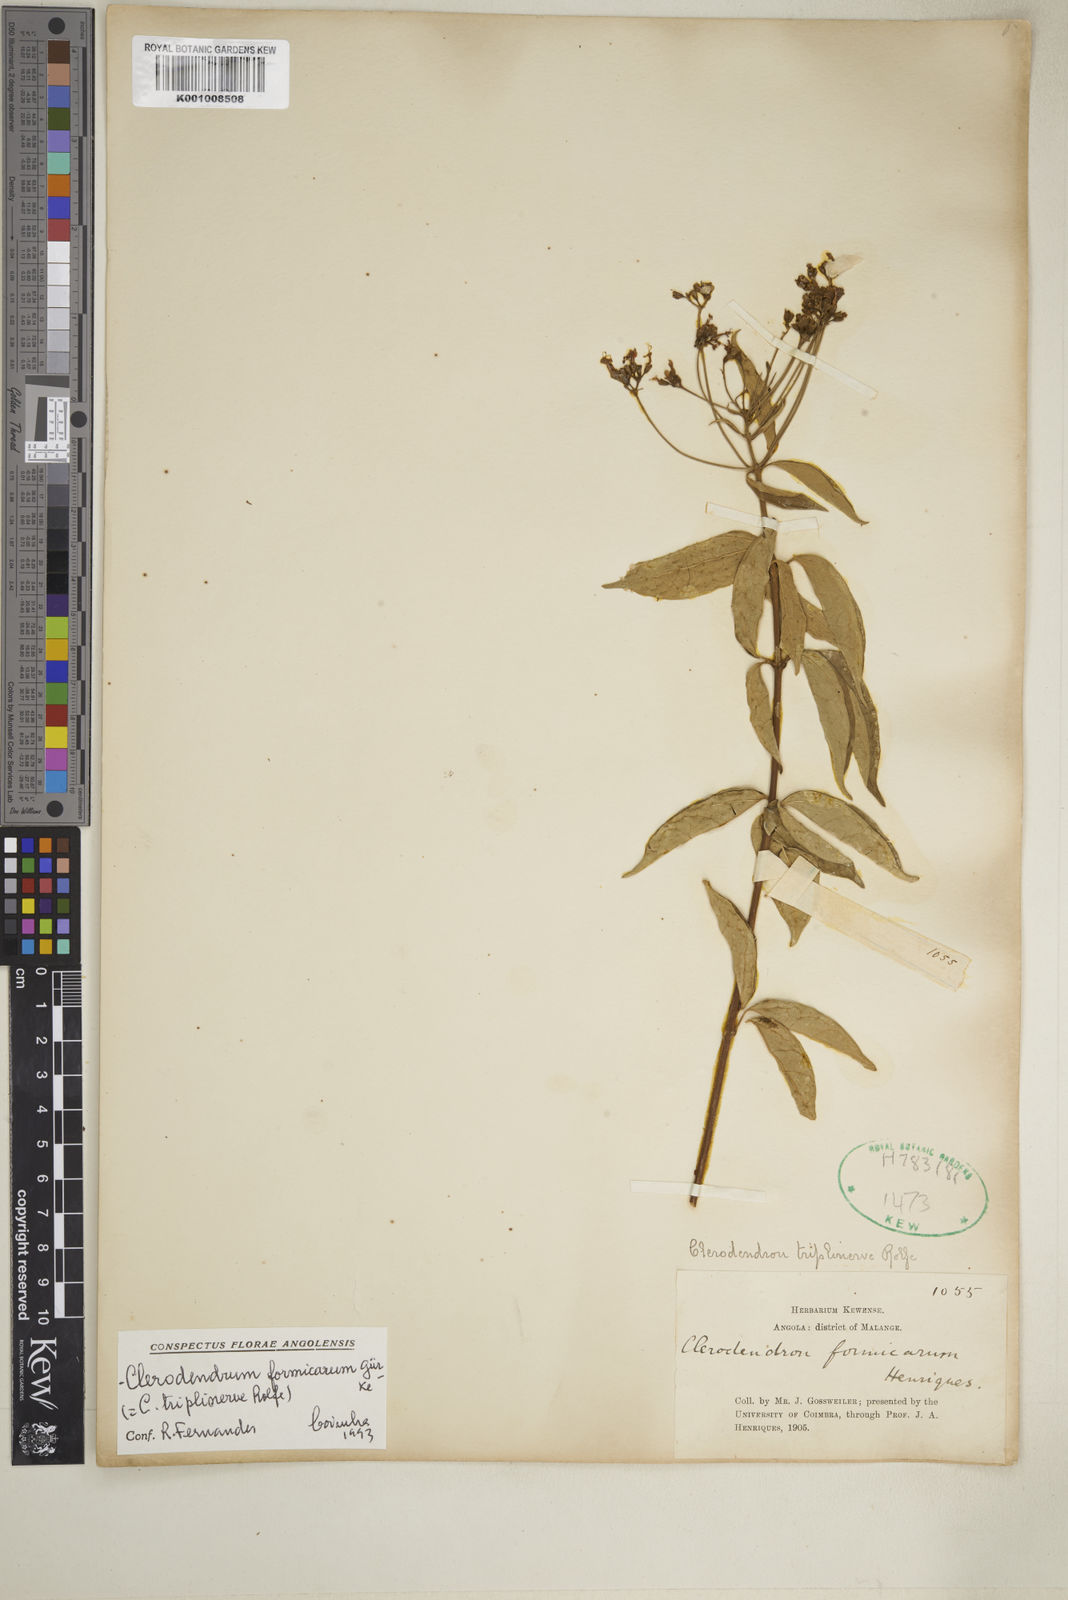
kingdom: Plantae
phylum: Tracheophyta
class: Magnoliopsida
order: Lamiales
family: Lamiaceae
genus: Clerodendrum
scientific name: Clerodendrum
